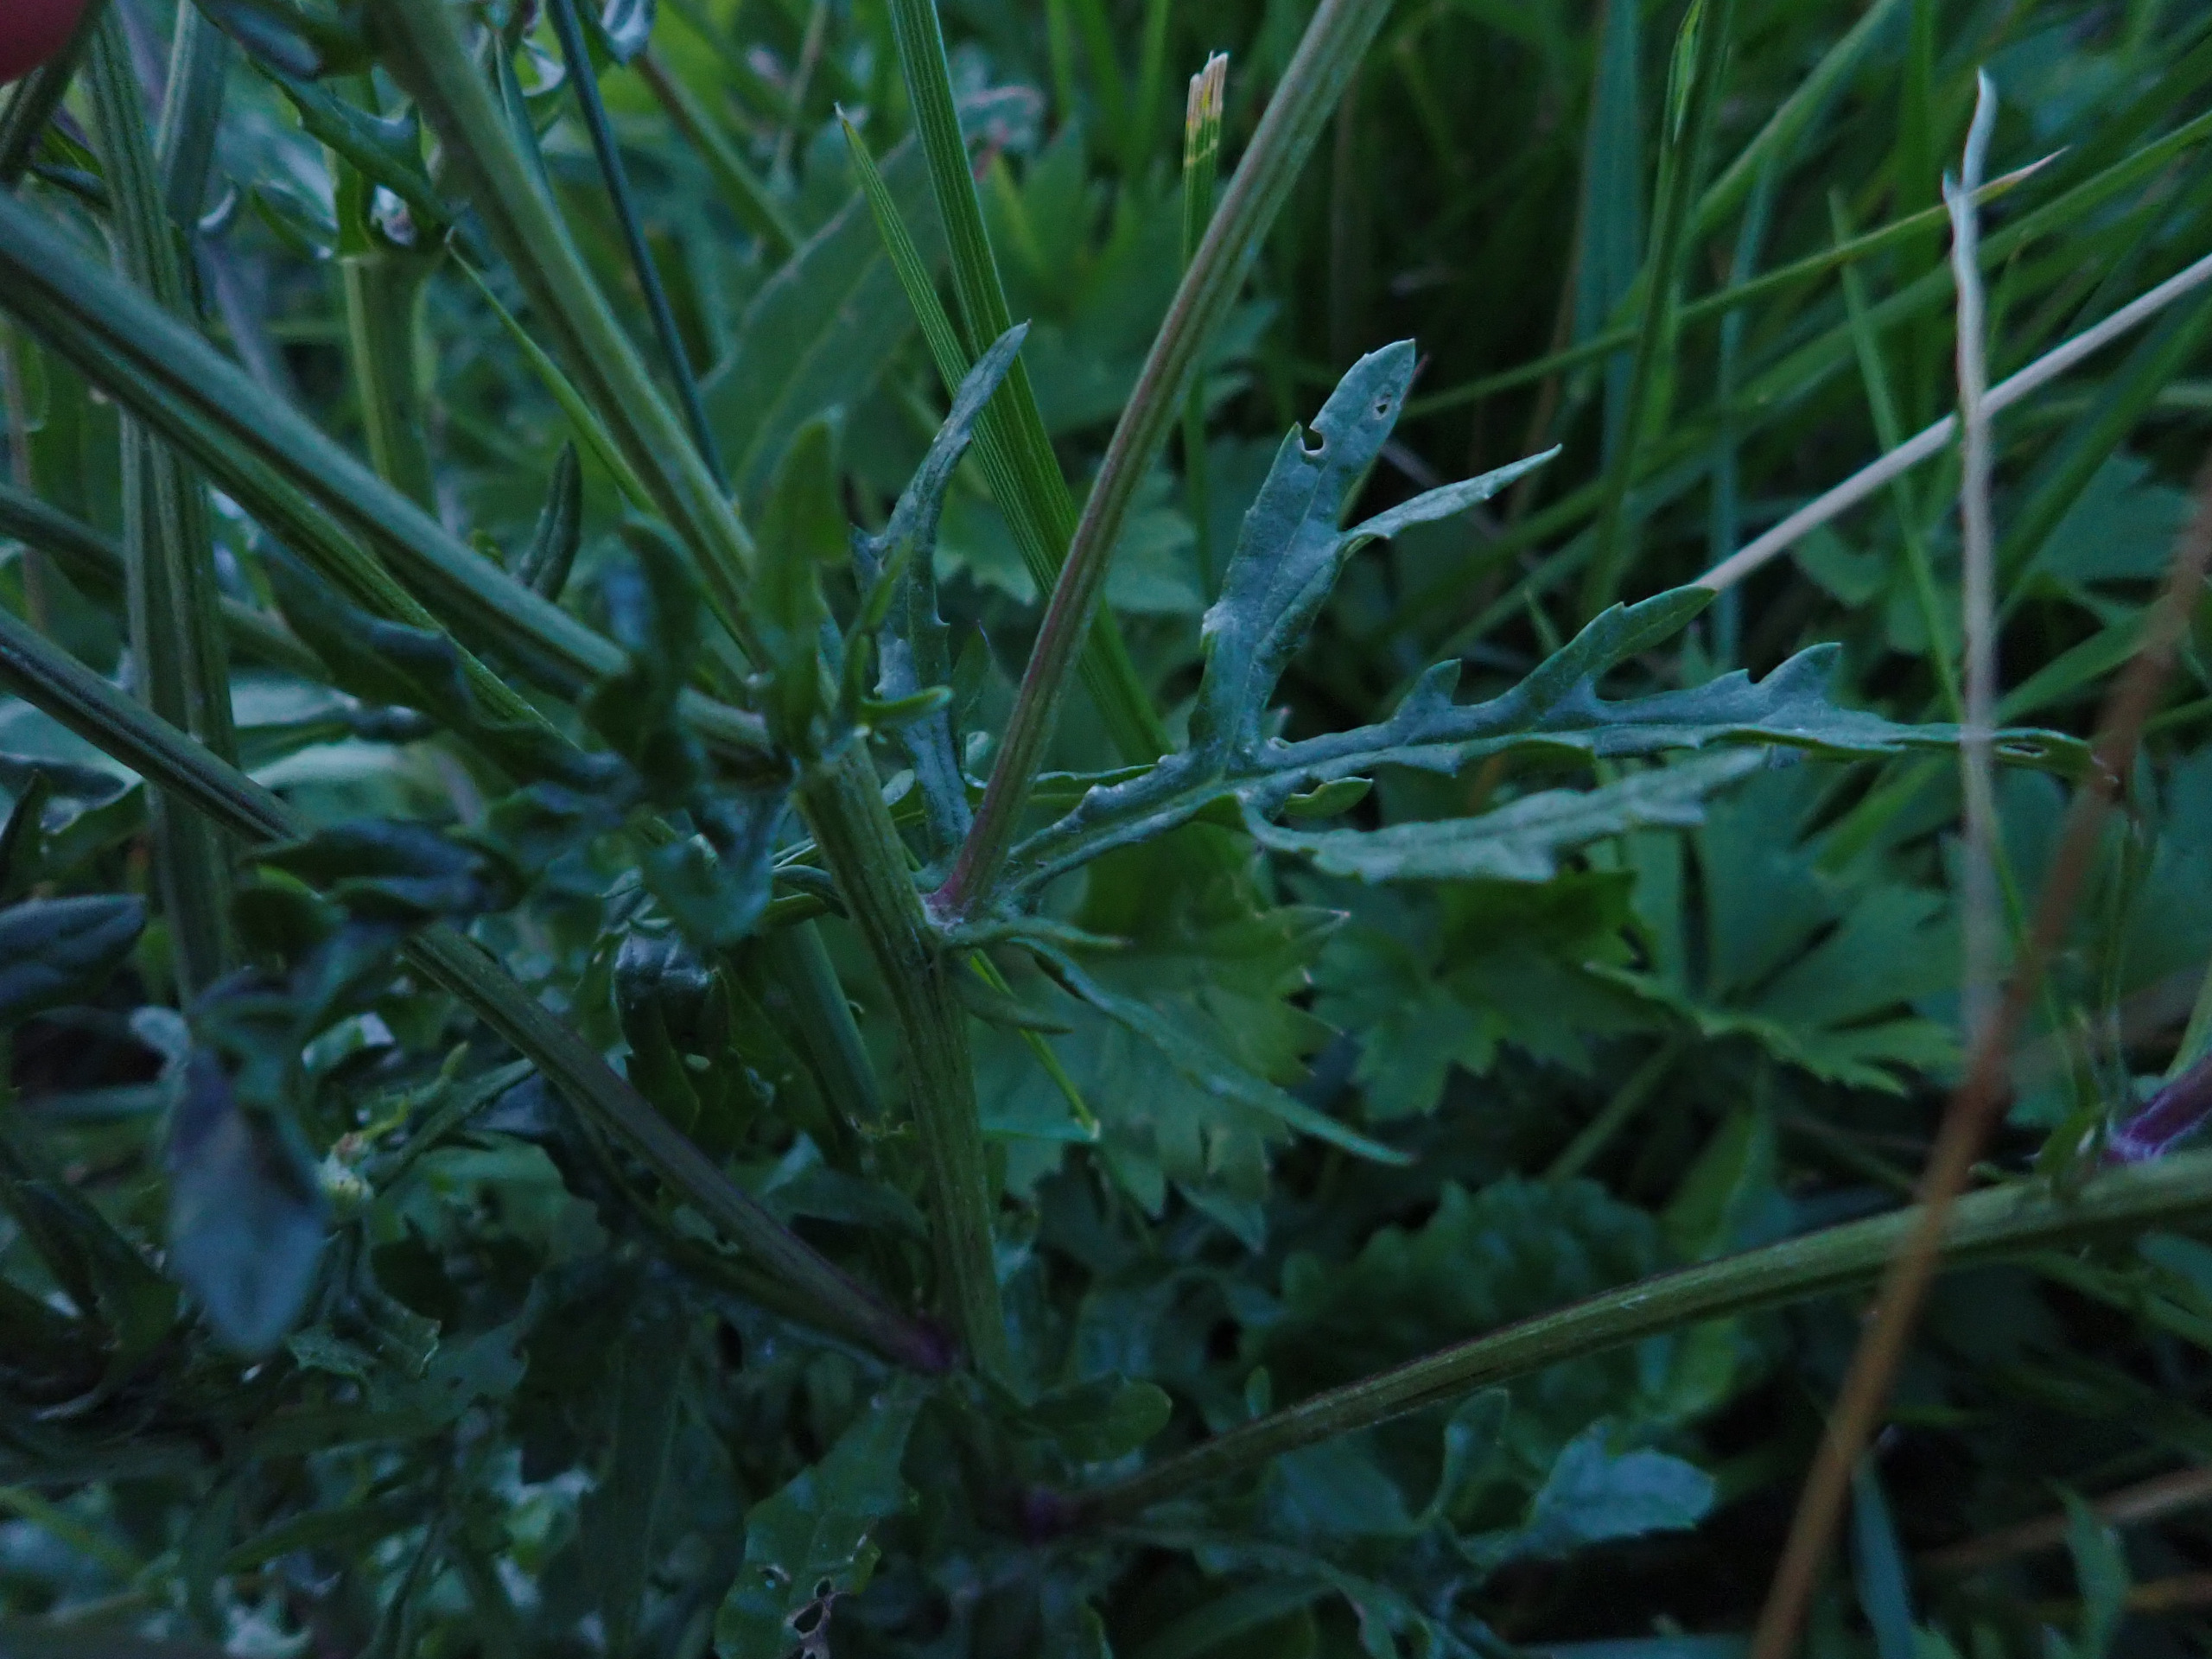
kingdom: Plantae
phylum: Tracheophyta
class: Magnoliopsida
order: Asterales
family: Asteraceae
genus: Jacobaea
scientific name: Jacobaea aquatica
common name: Vand-brandbæger
